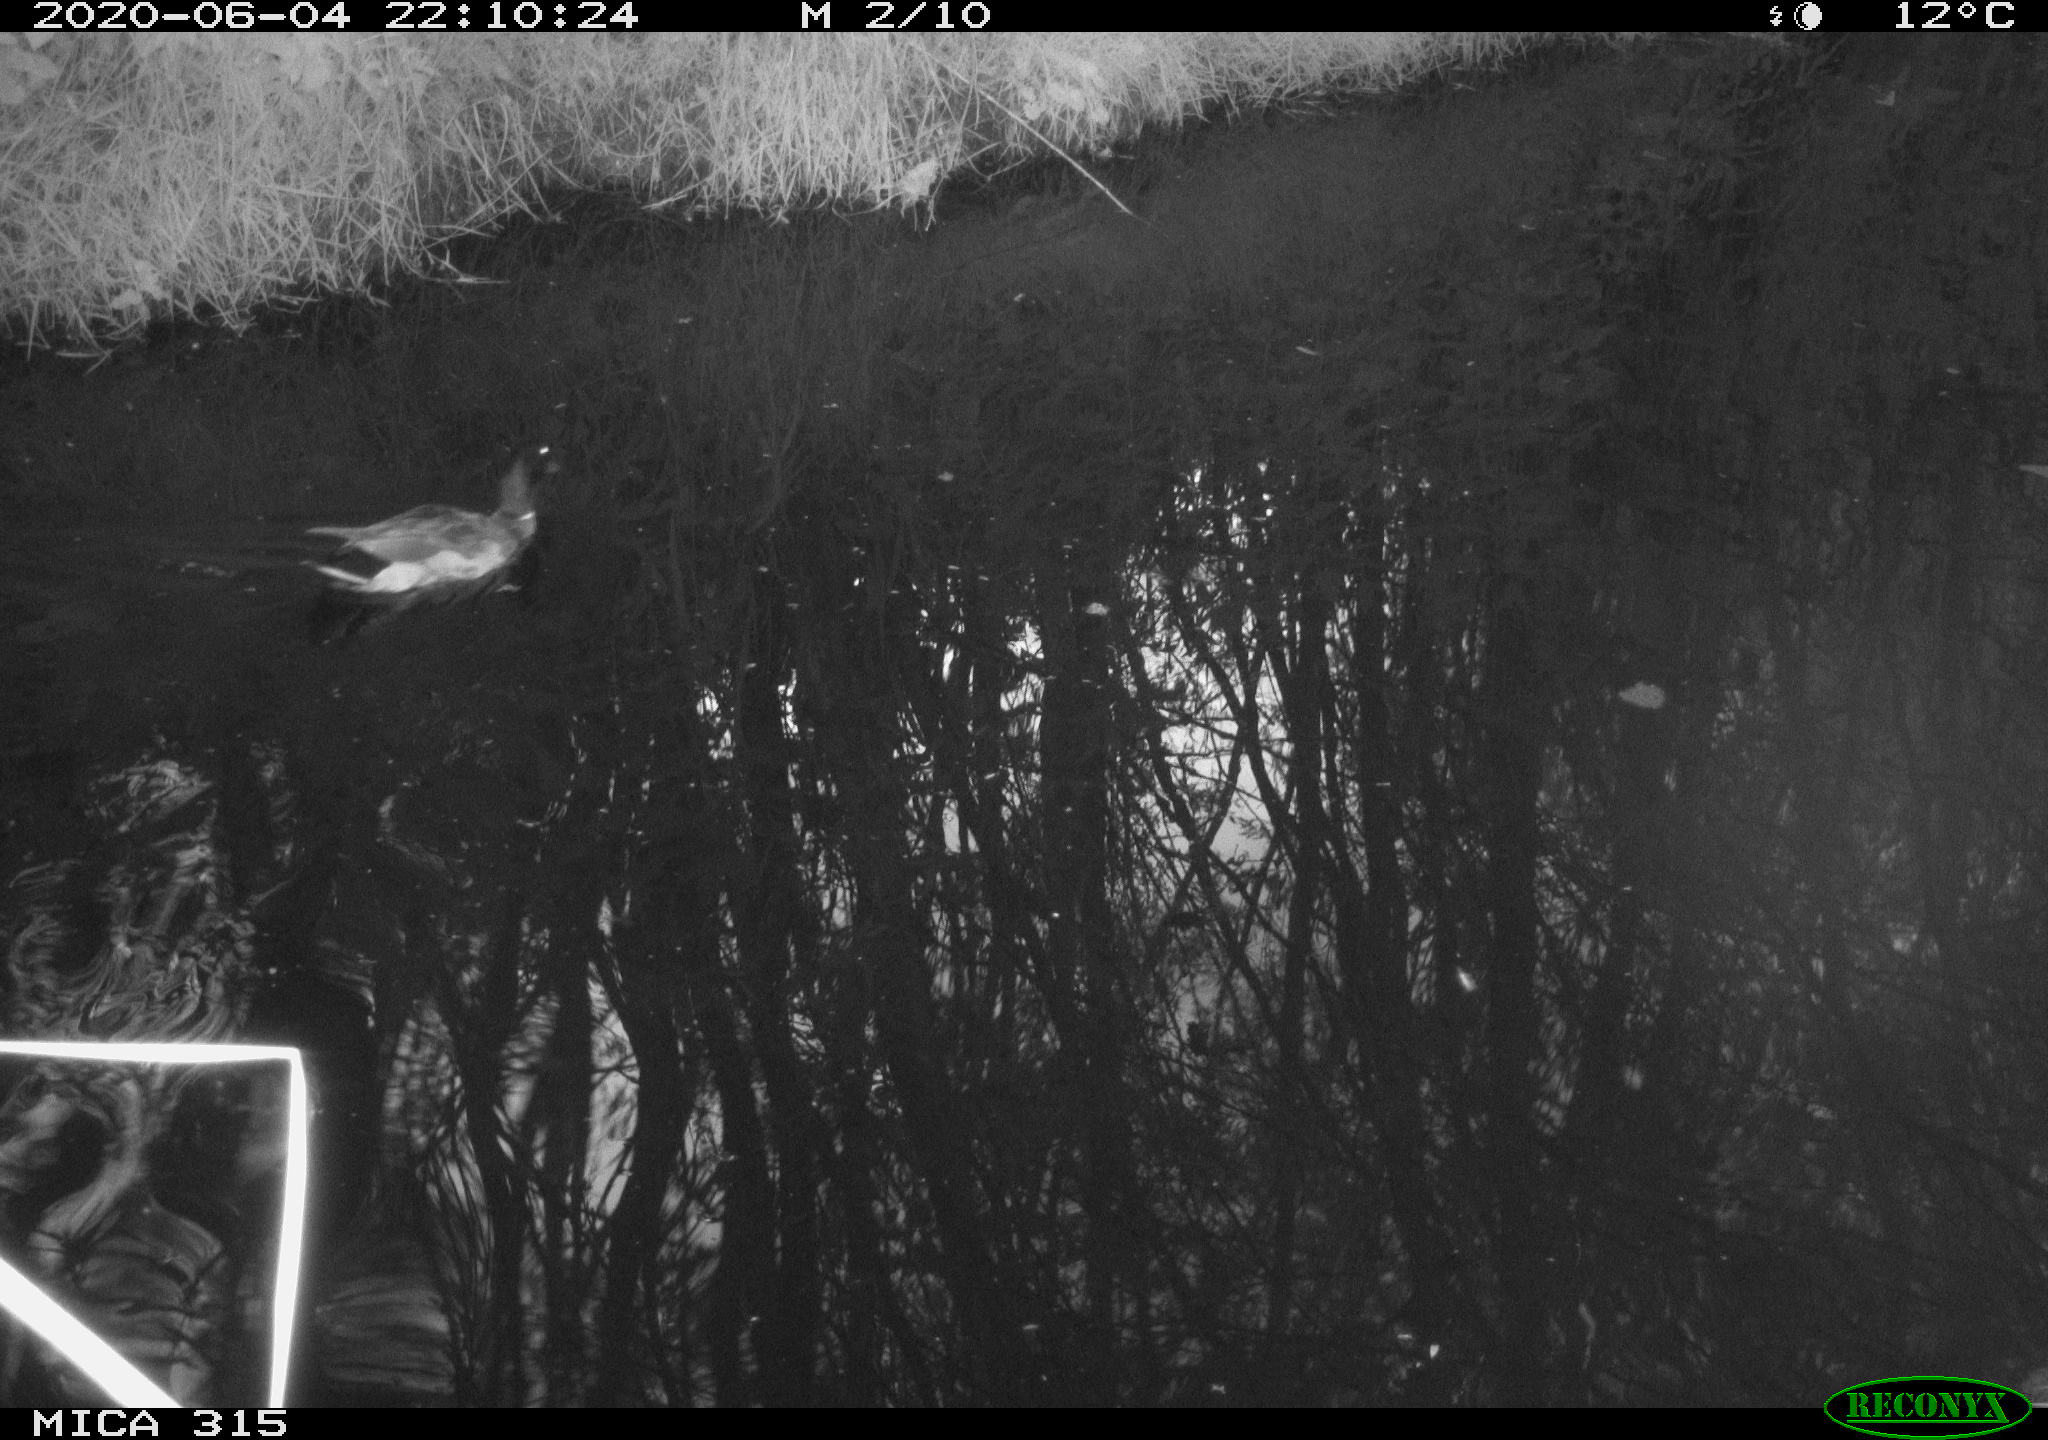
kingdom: Animalia
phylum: Chordata
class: Aves
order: Anseriformes
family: Anatidae
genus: Anas
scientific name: Anas platyrhynchos
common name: Mallard
